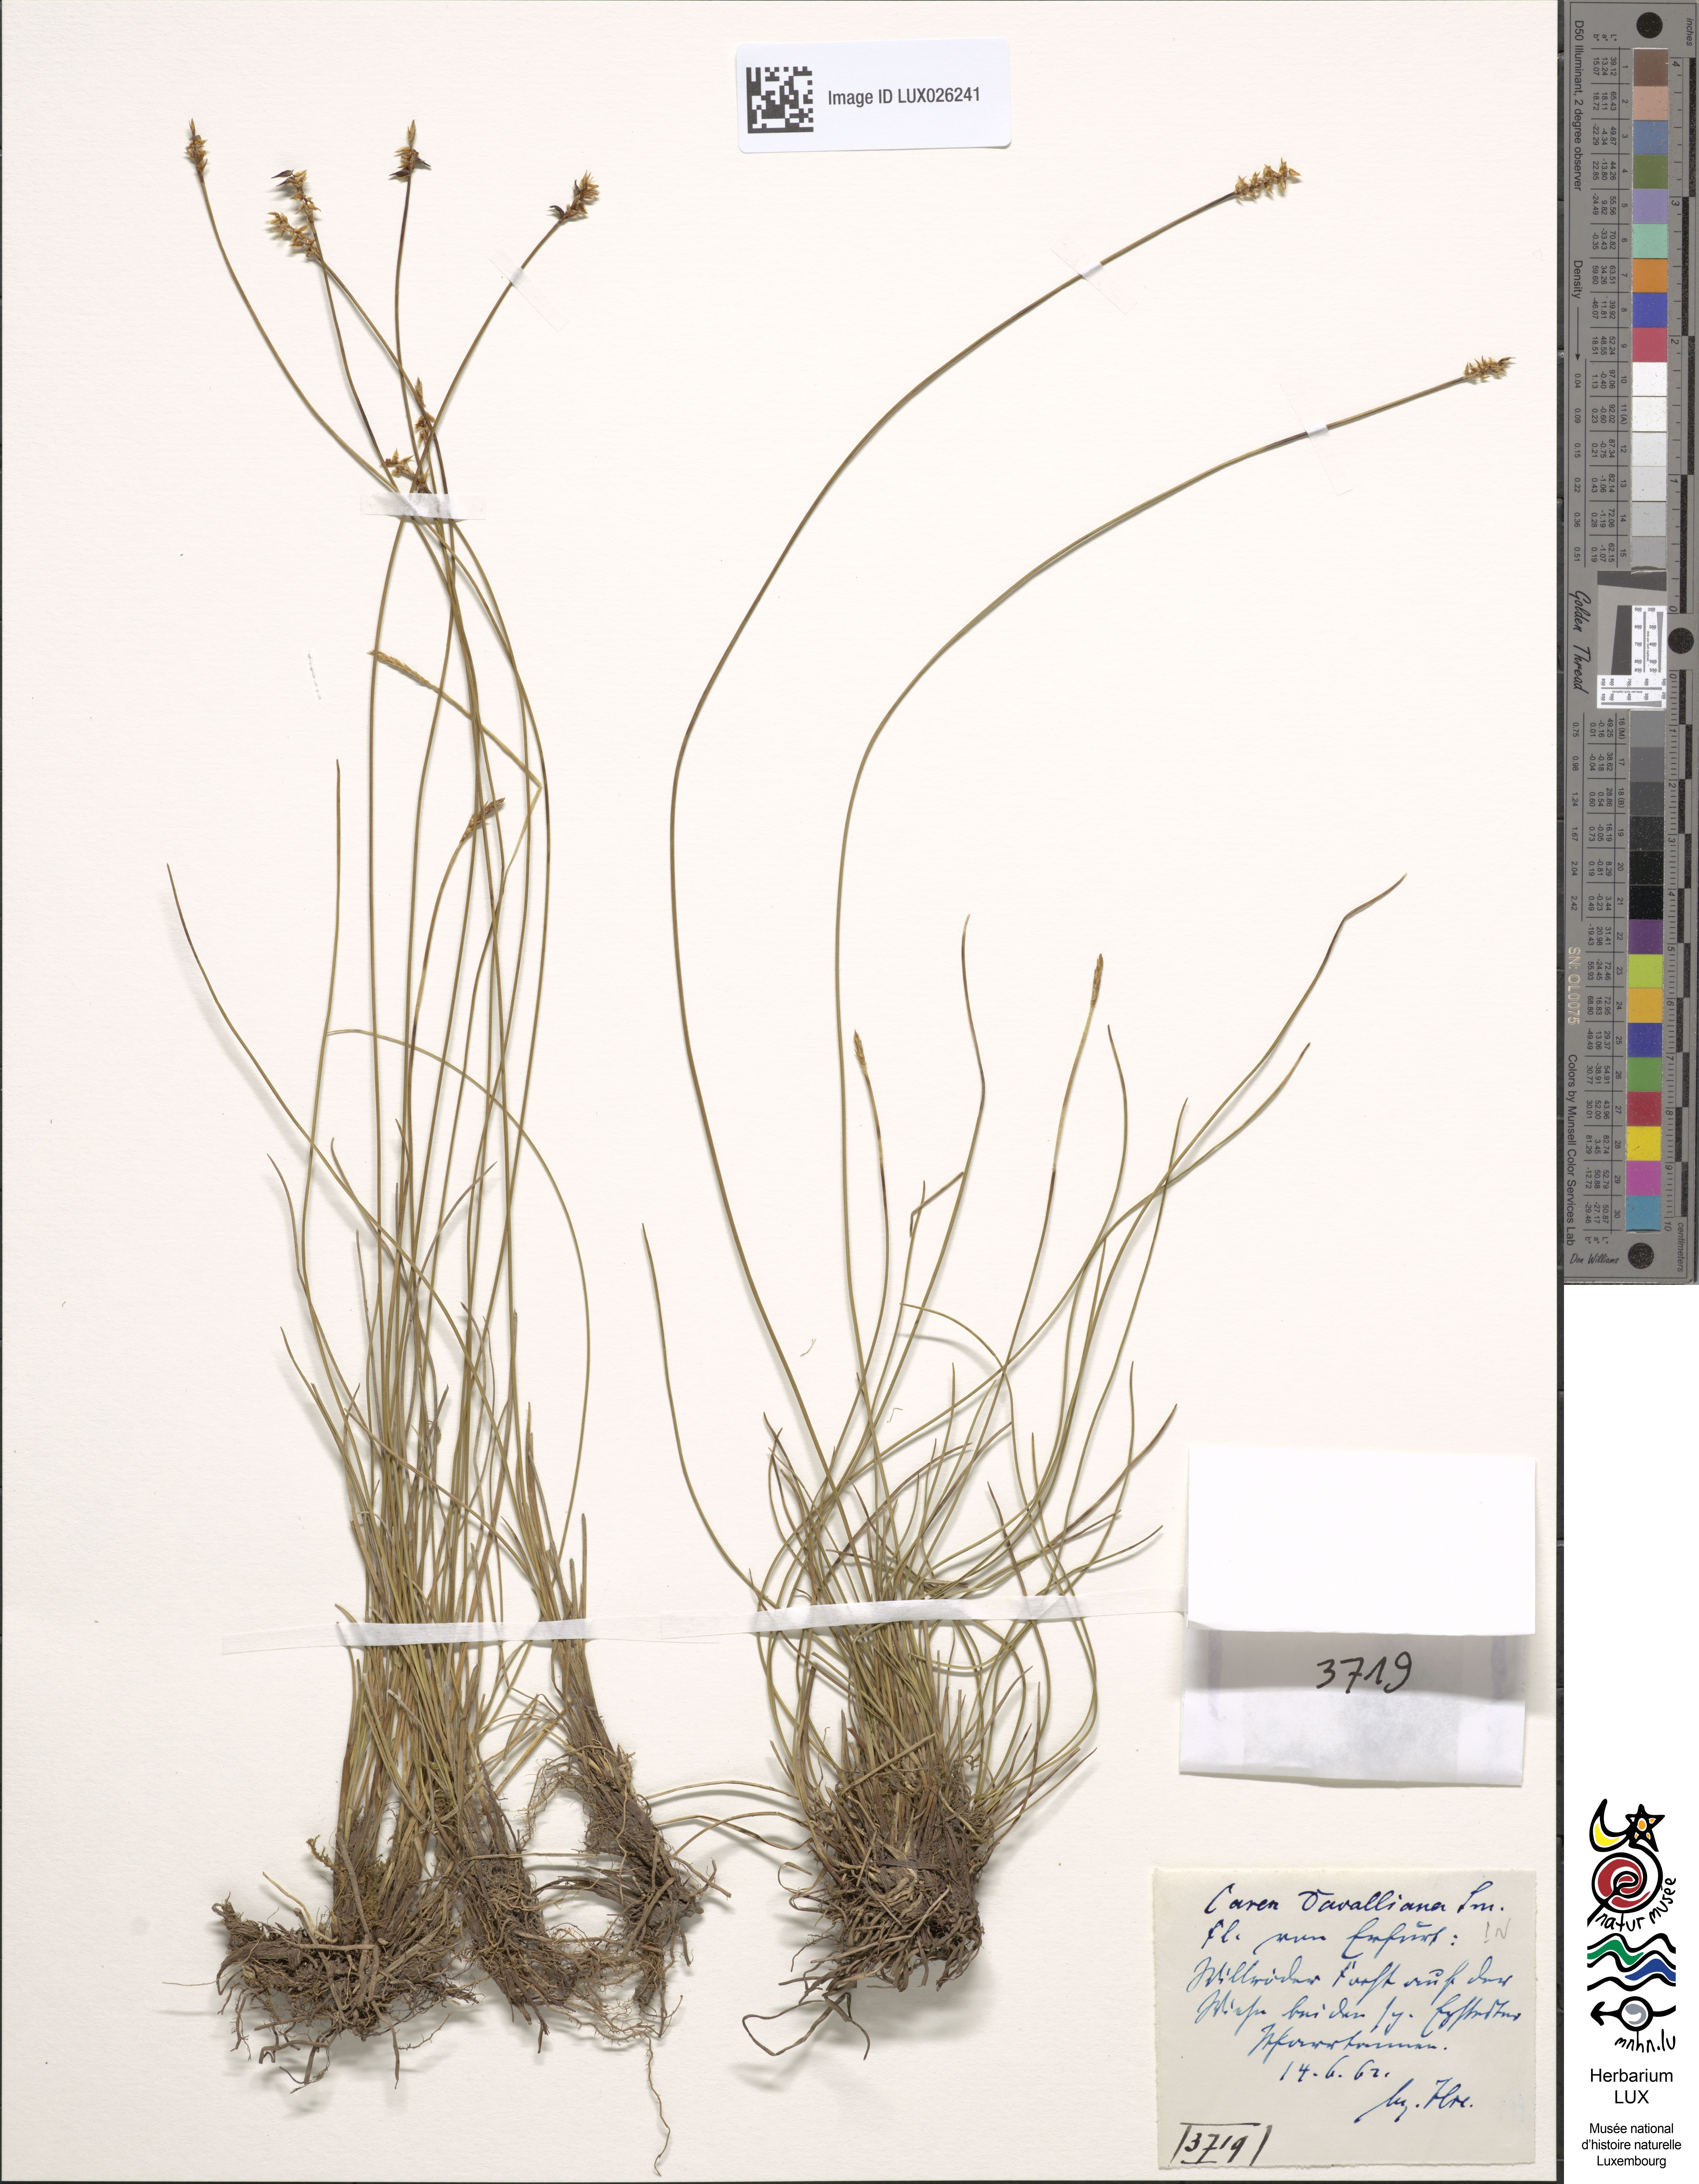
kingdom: Plantae
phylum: Tracheophyta
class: Liliopsida
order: Poales
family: Cyperaceae
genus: Carex
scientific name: Carex davalliana
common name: Davall's sedge
